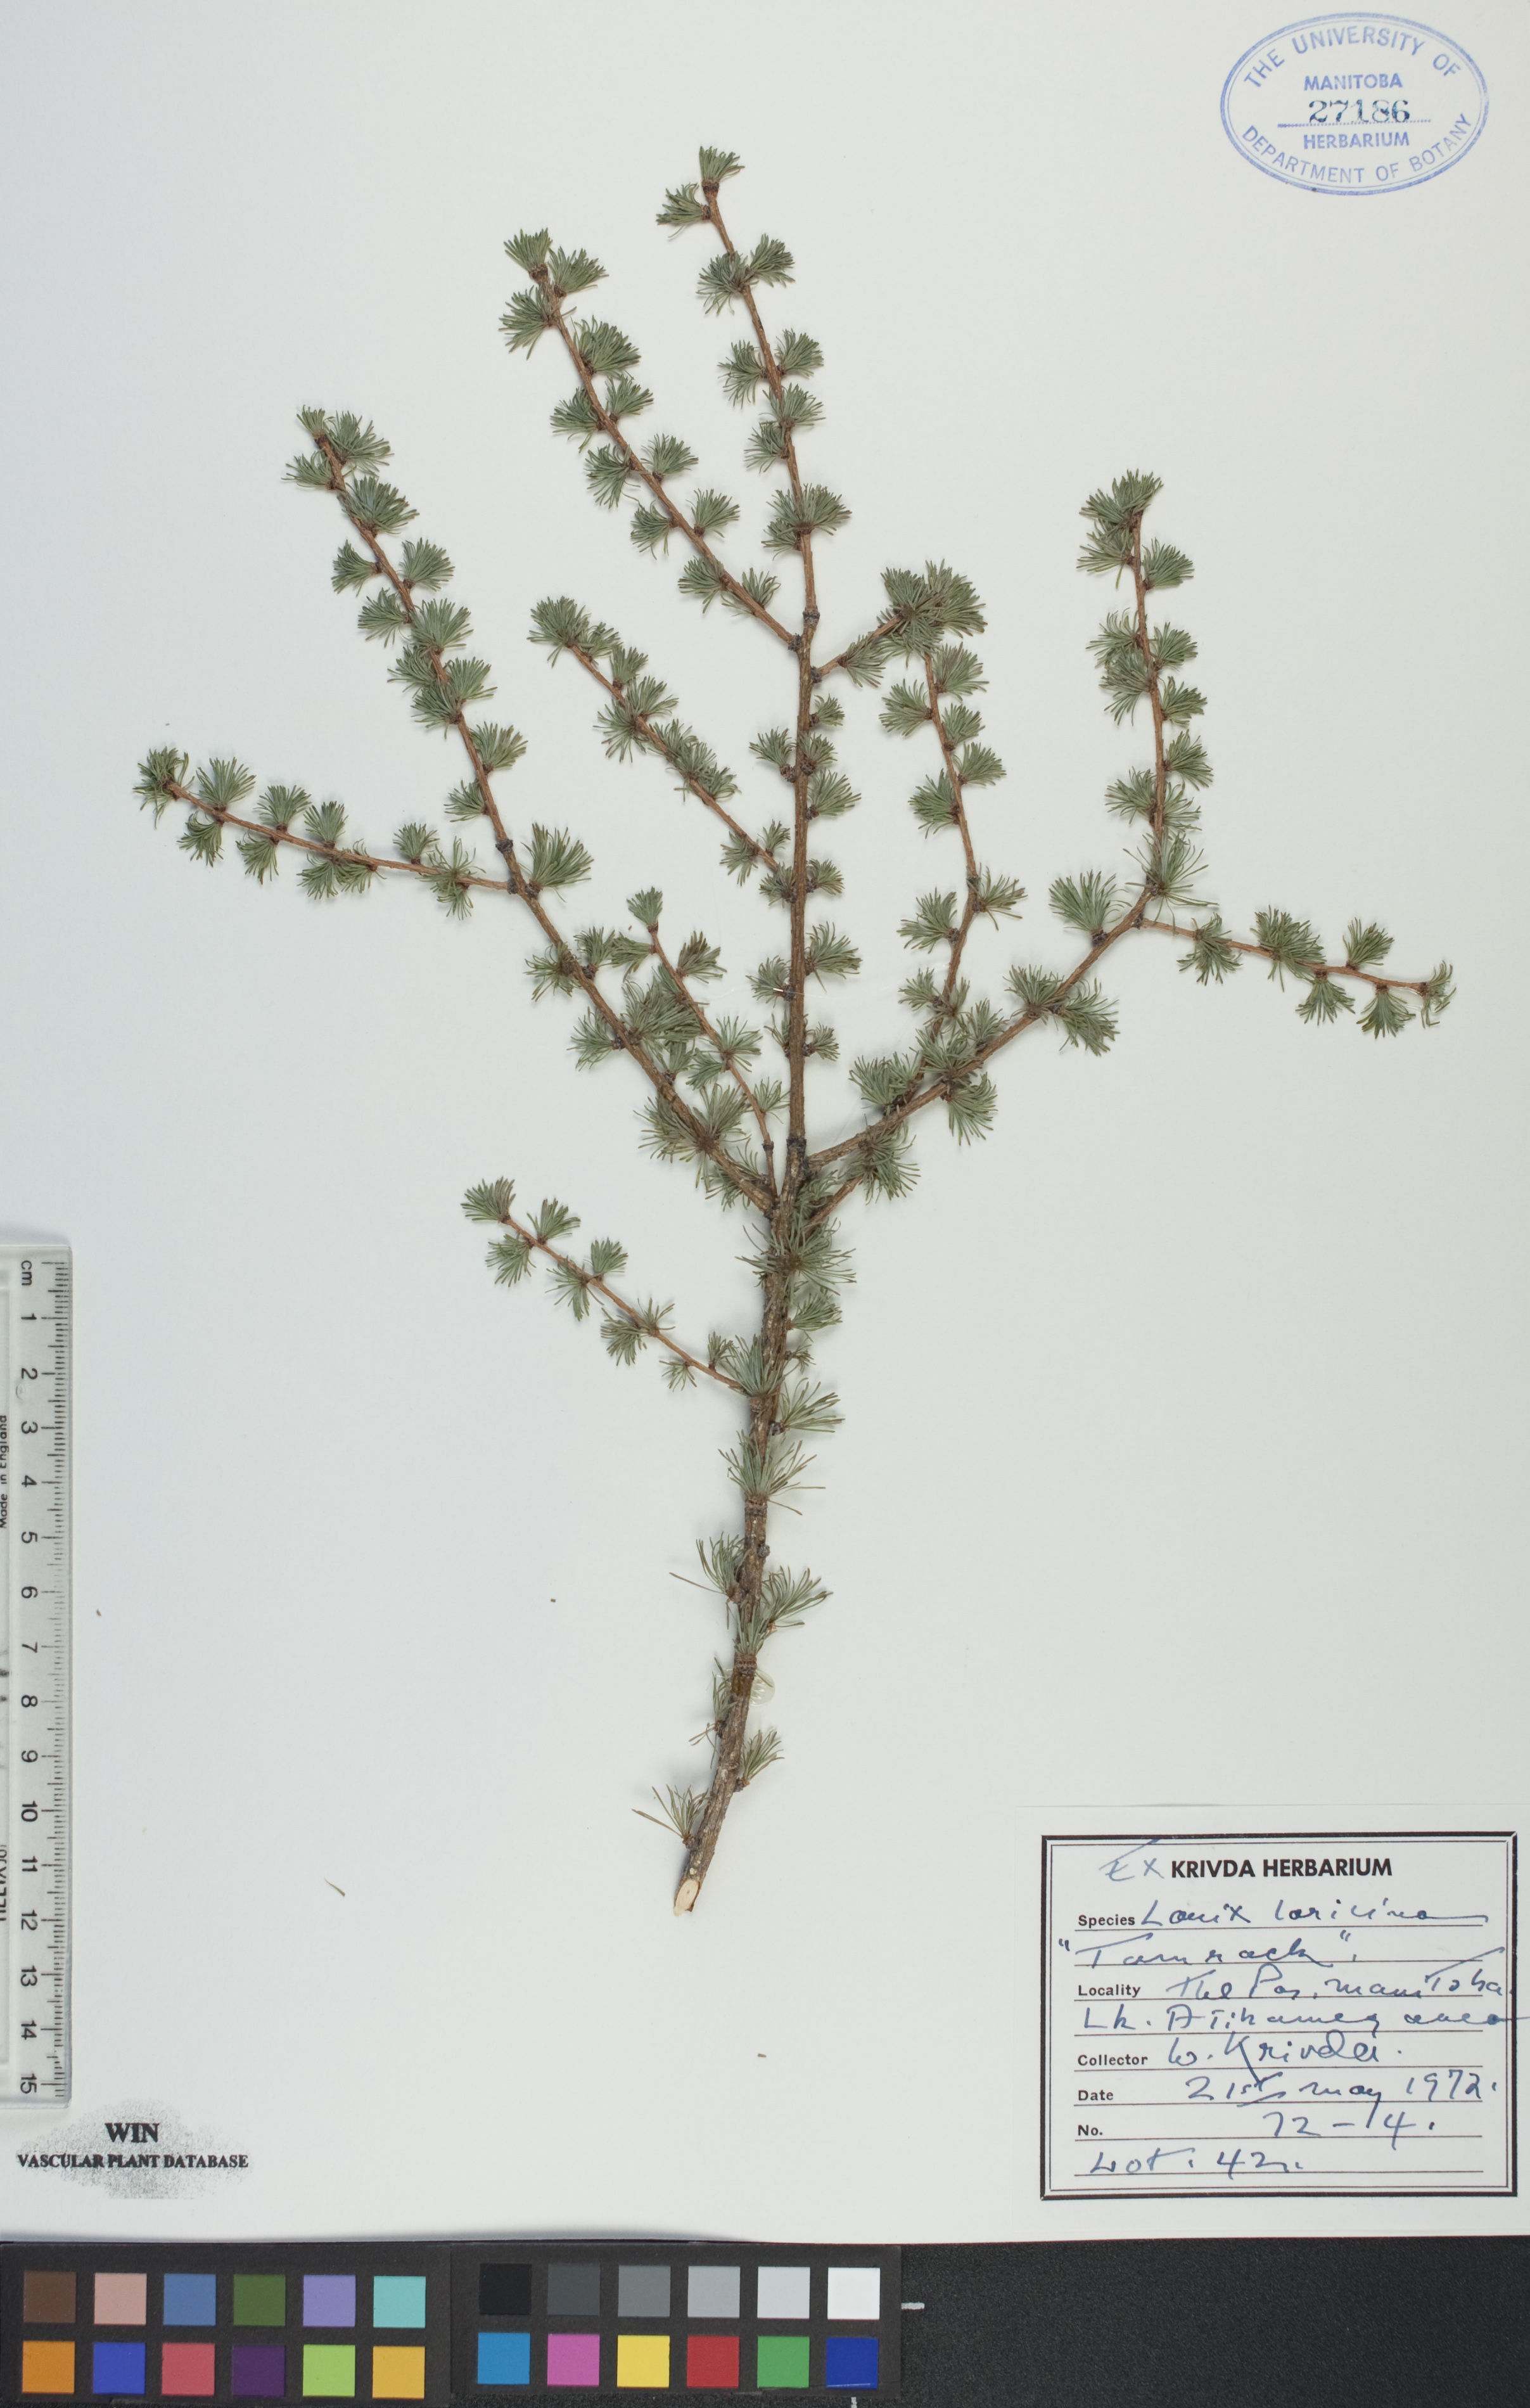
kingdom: Plantae
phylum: Tracheophyta
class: Pinopsida
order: Pinales
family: Pinaceae
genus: Larix
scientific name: Larix laricina
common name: American larch
